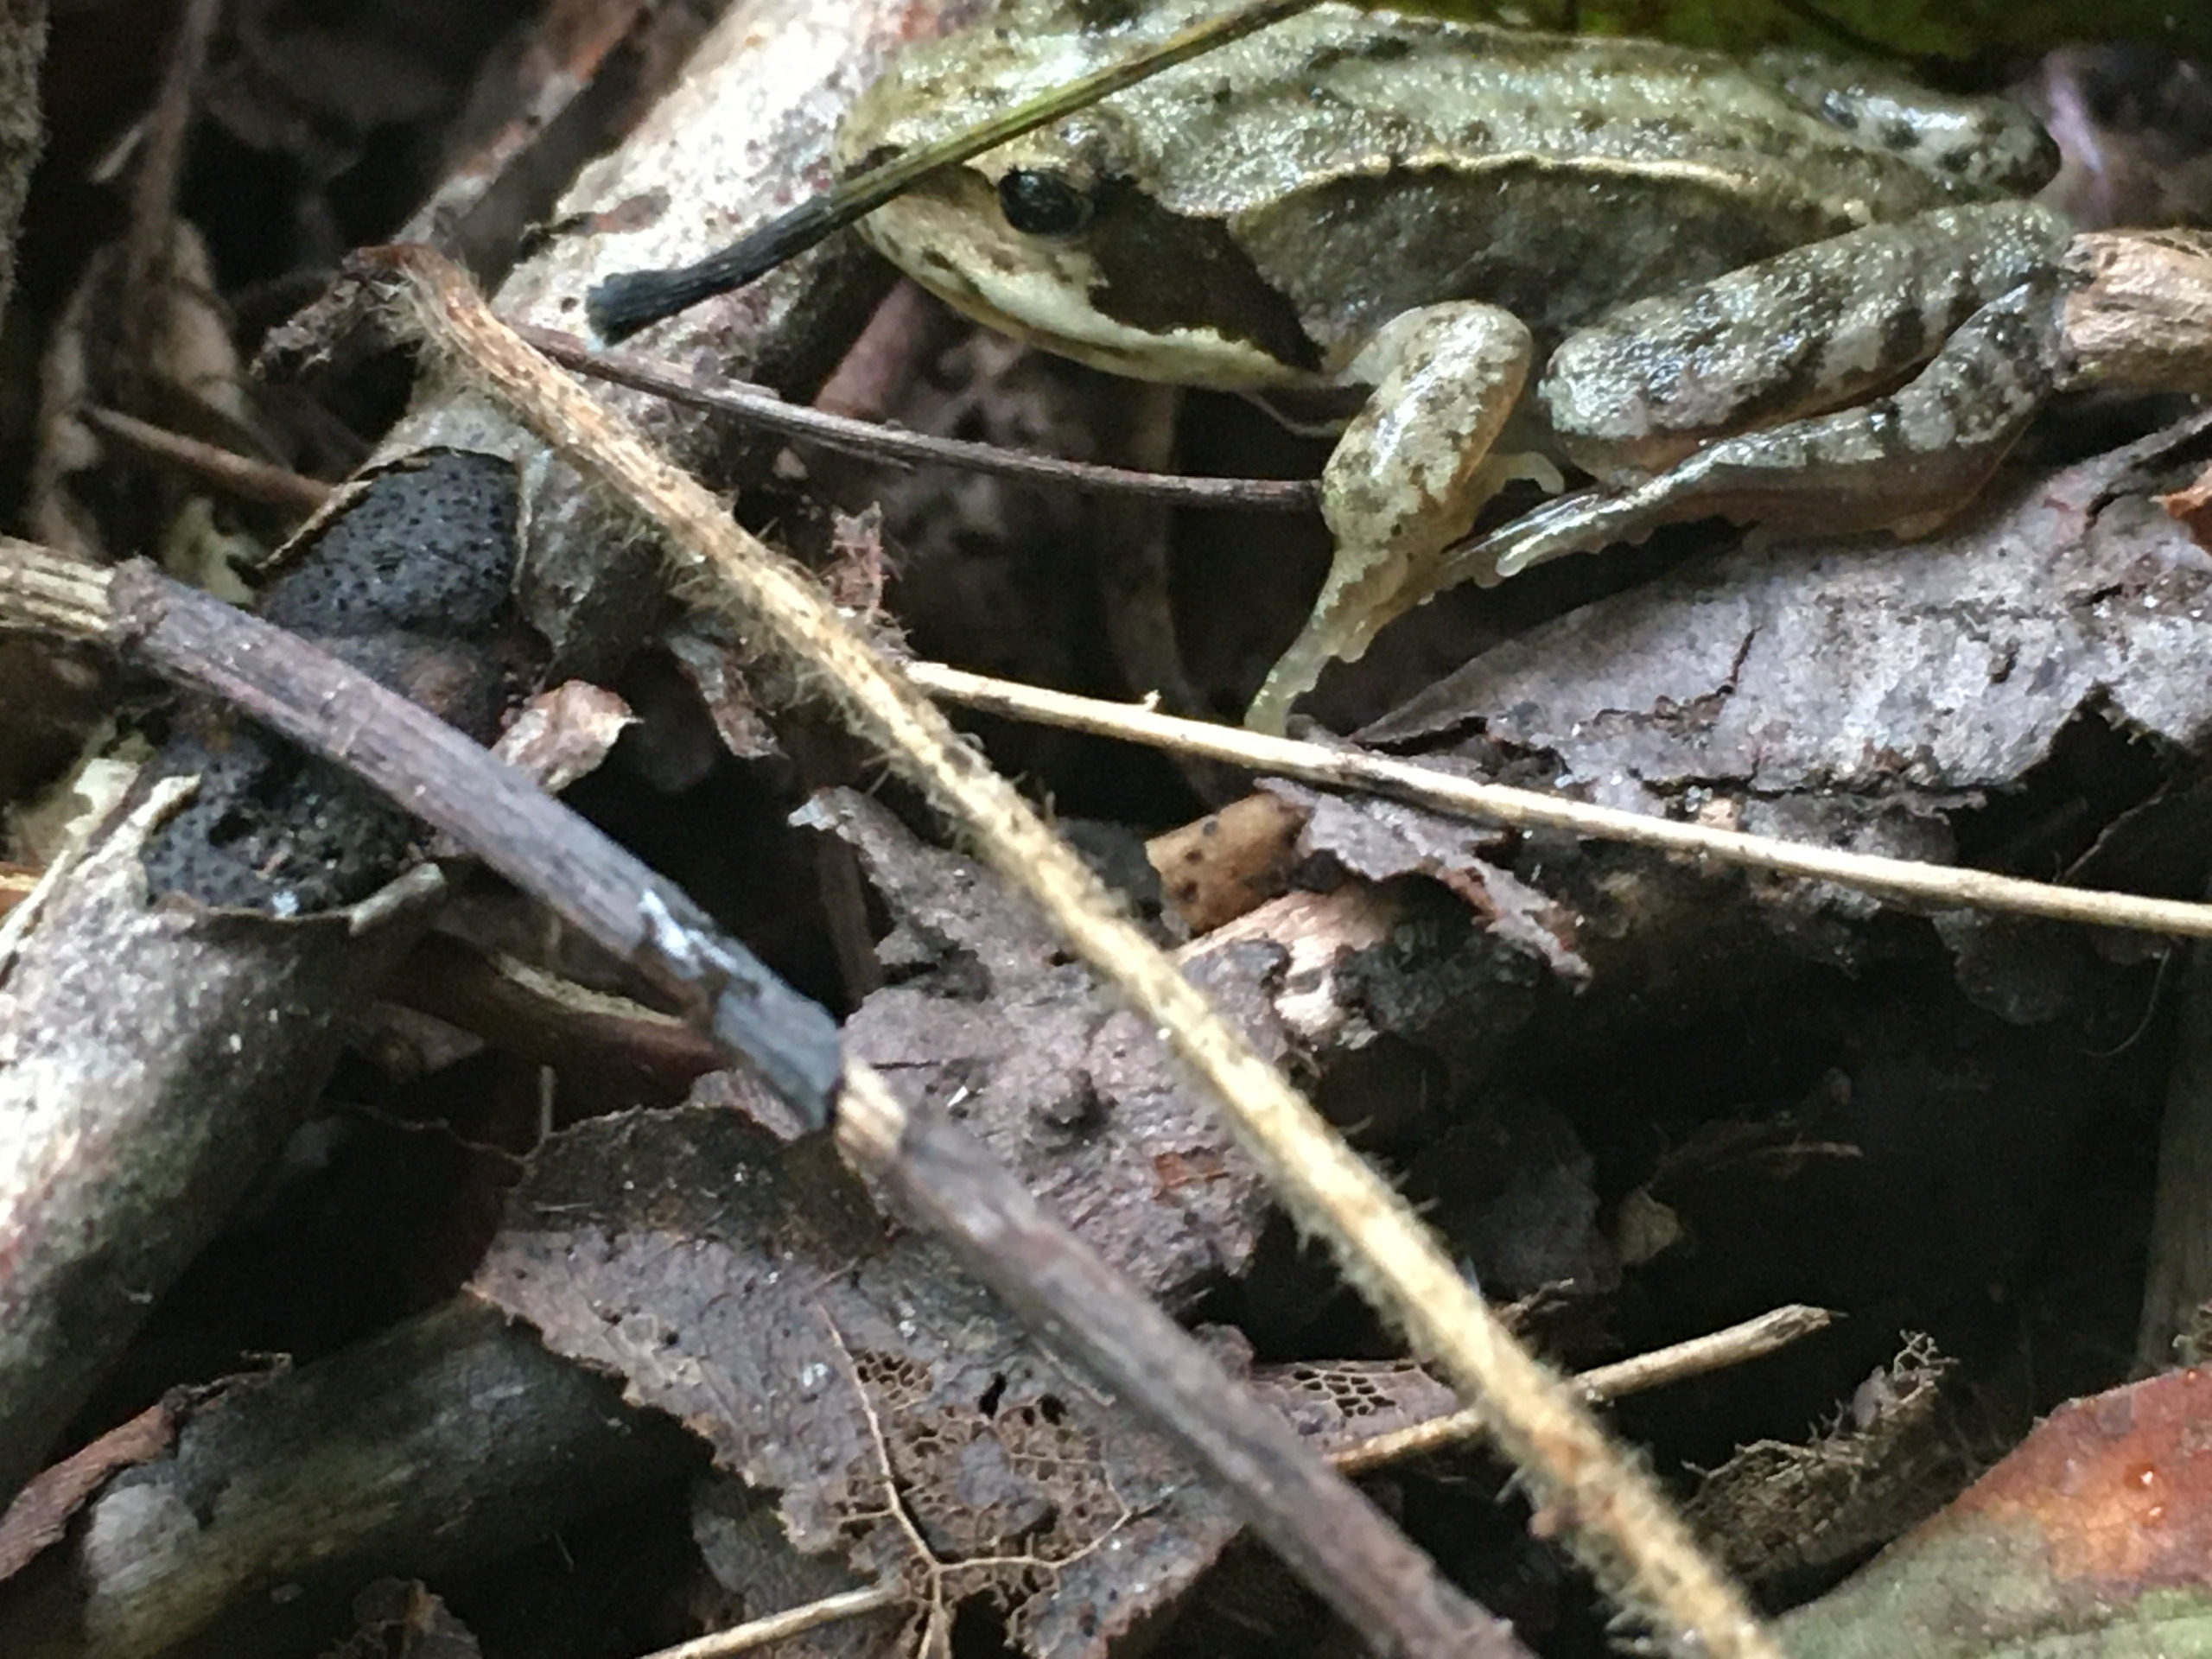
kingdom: Animalia
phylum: Chordata
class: Amphibia
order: Anura
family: Ranidae
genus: Rana
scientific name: Rana temporaria
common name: Butsnudet frø
